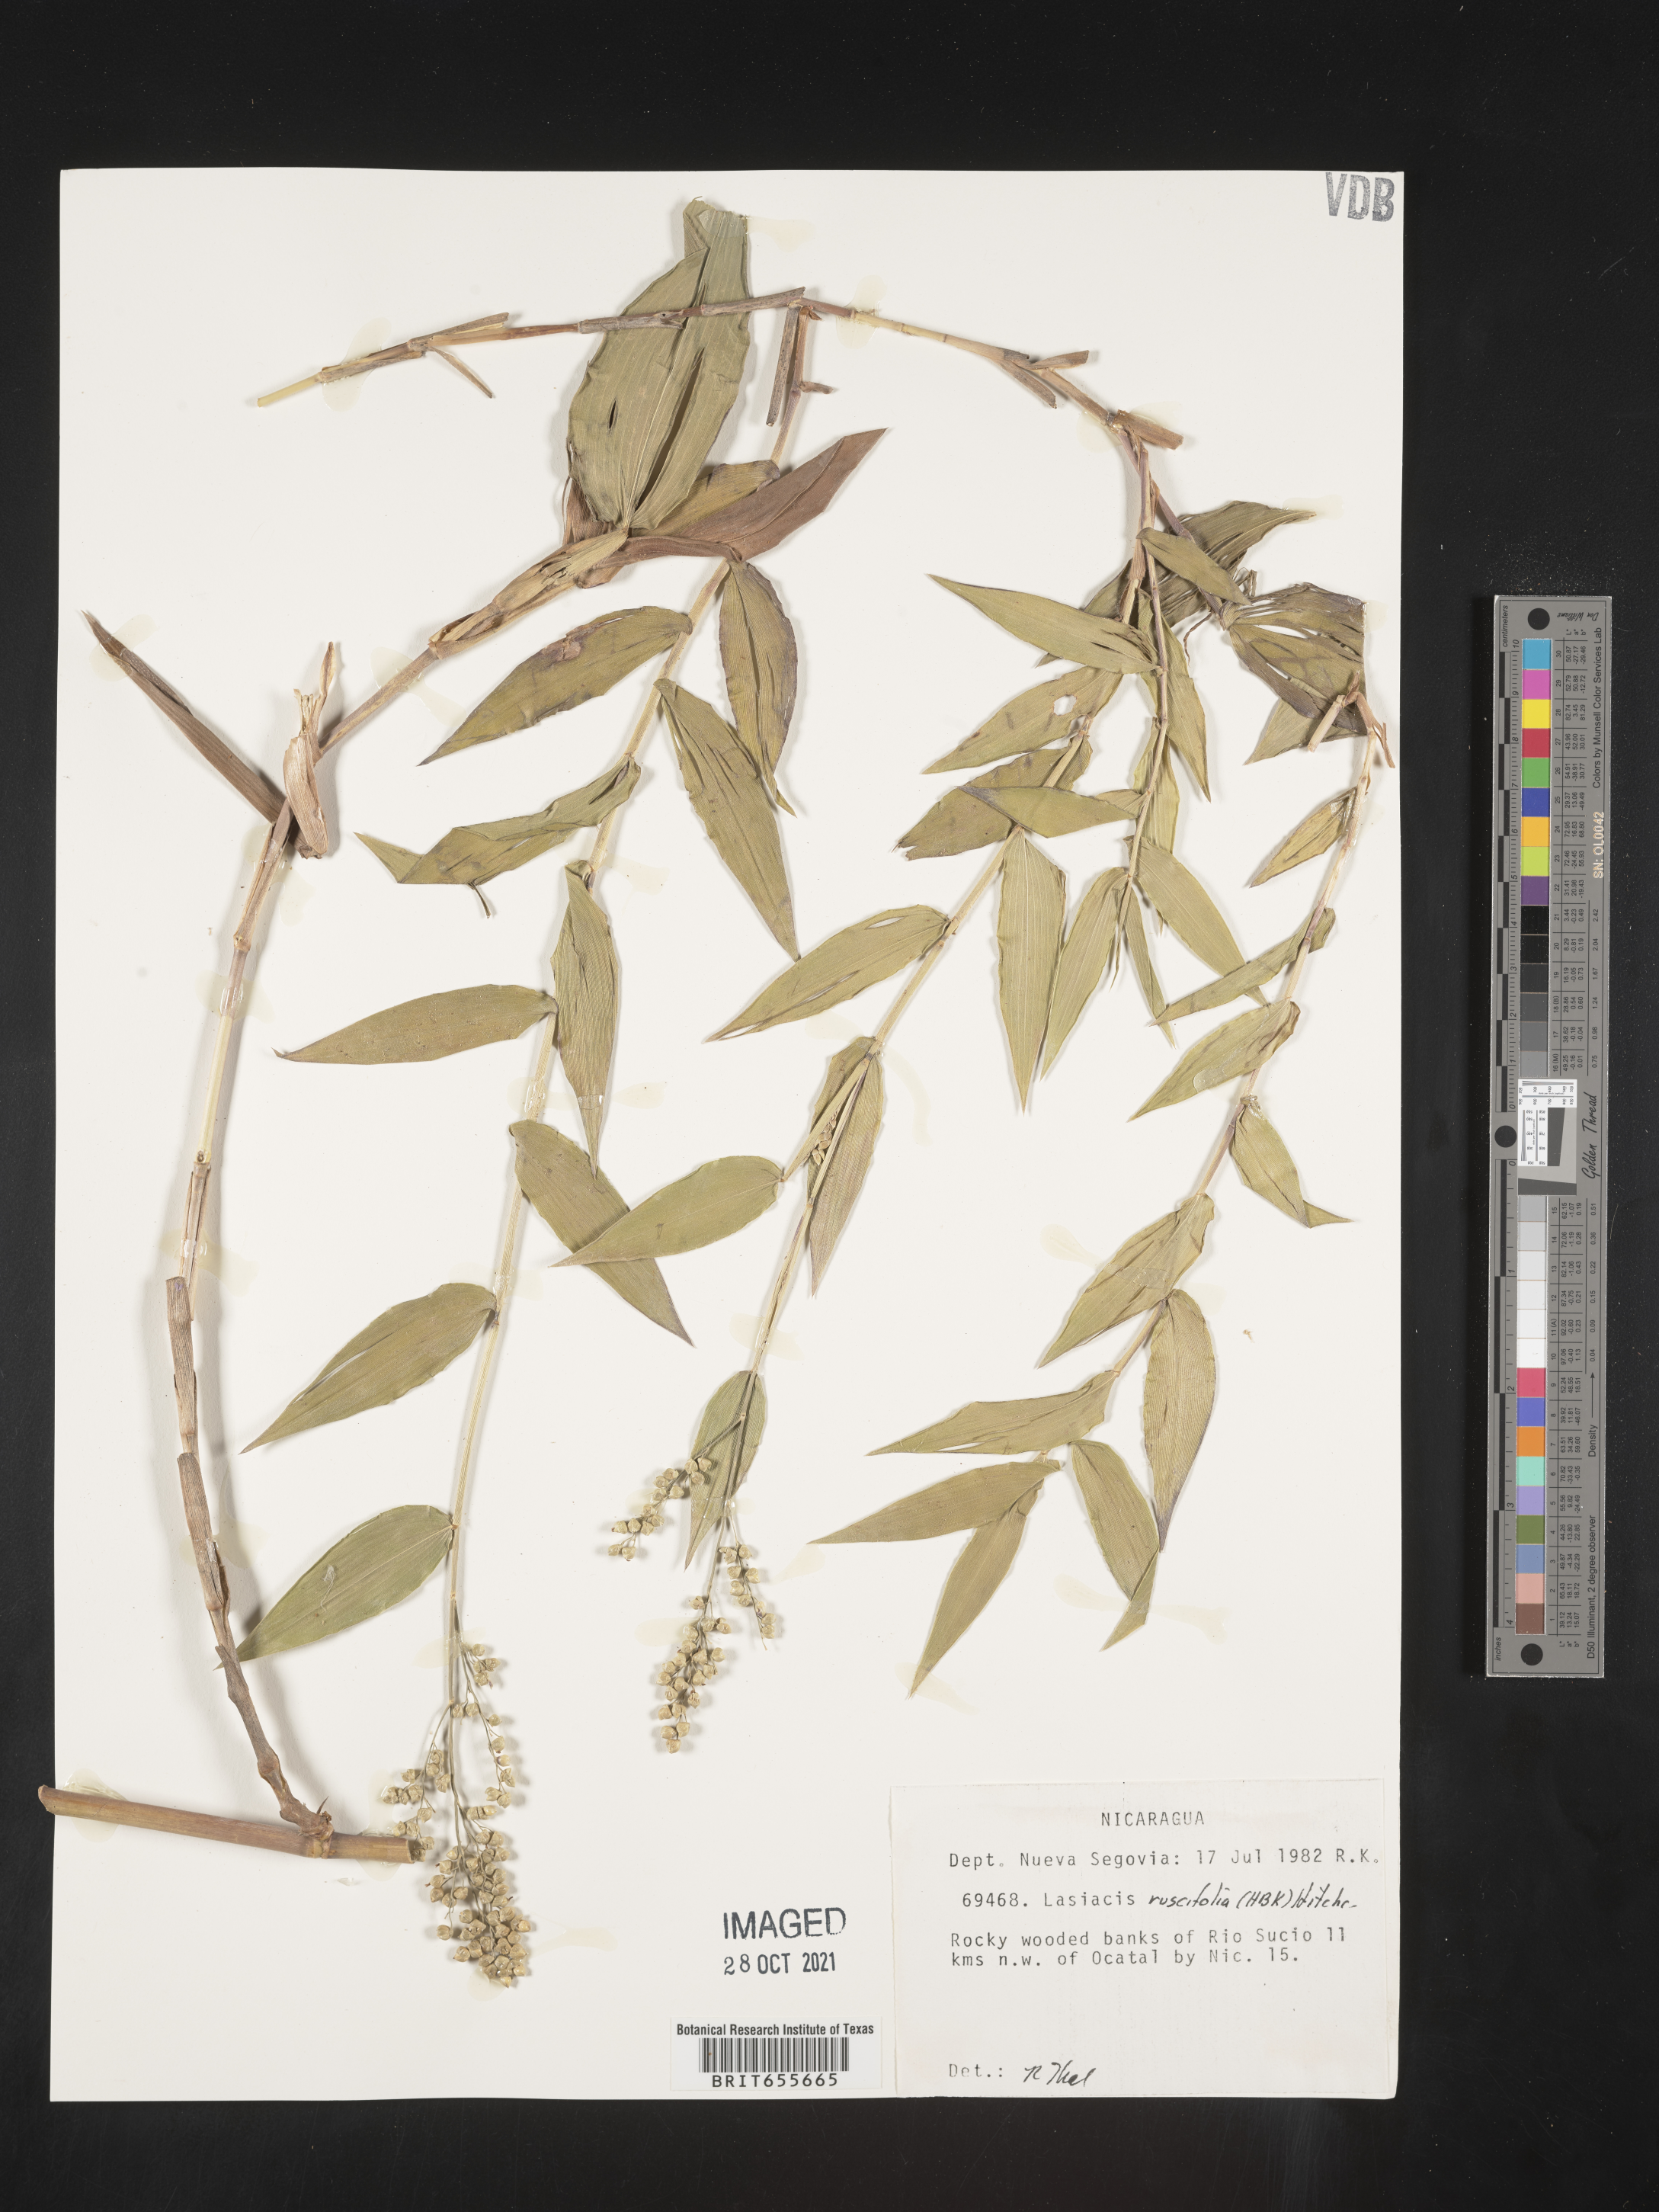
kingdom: Plantae
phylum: Tracheophyta
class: Liliopsida
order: Poales
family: Poaceae
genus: Lasiacis
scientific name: Lasiacis
